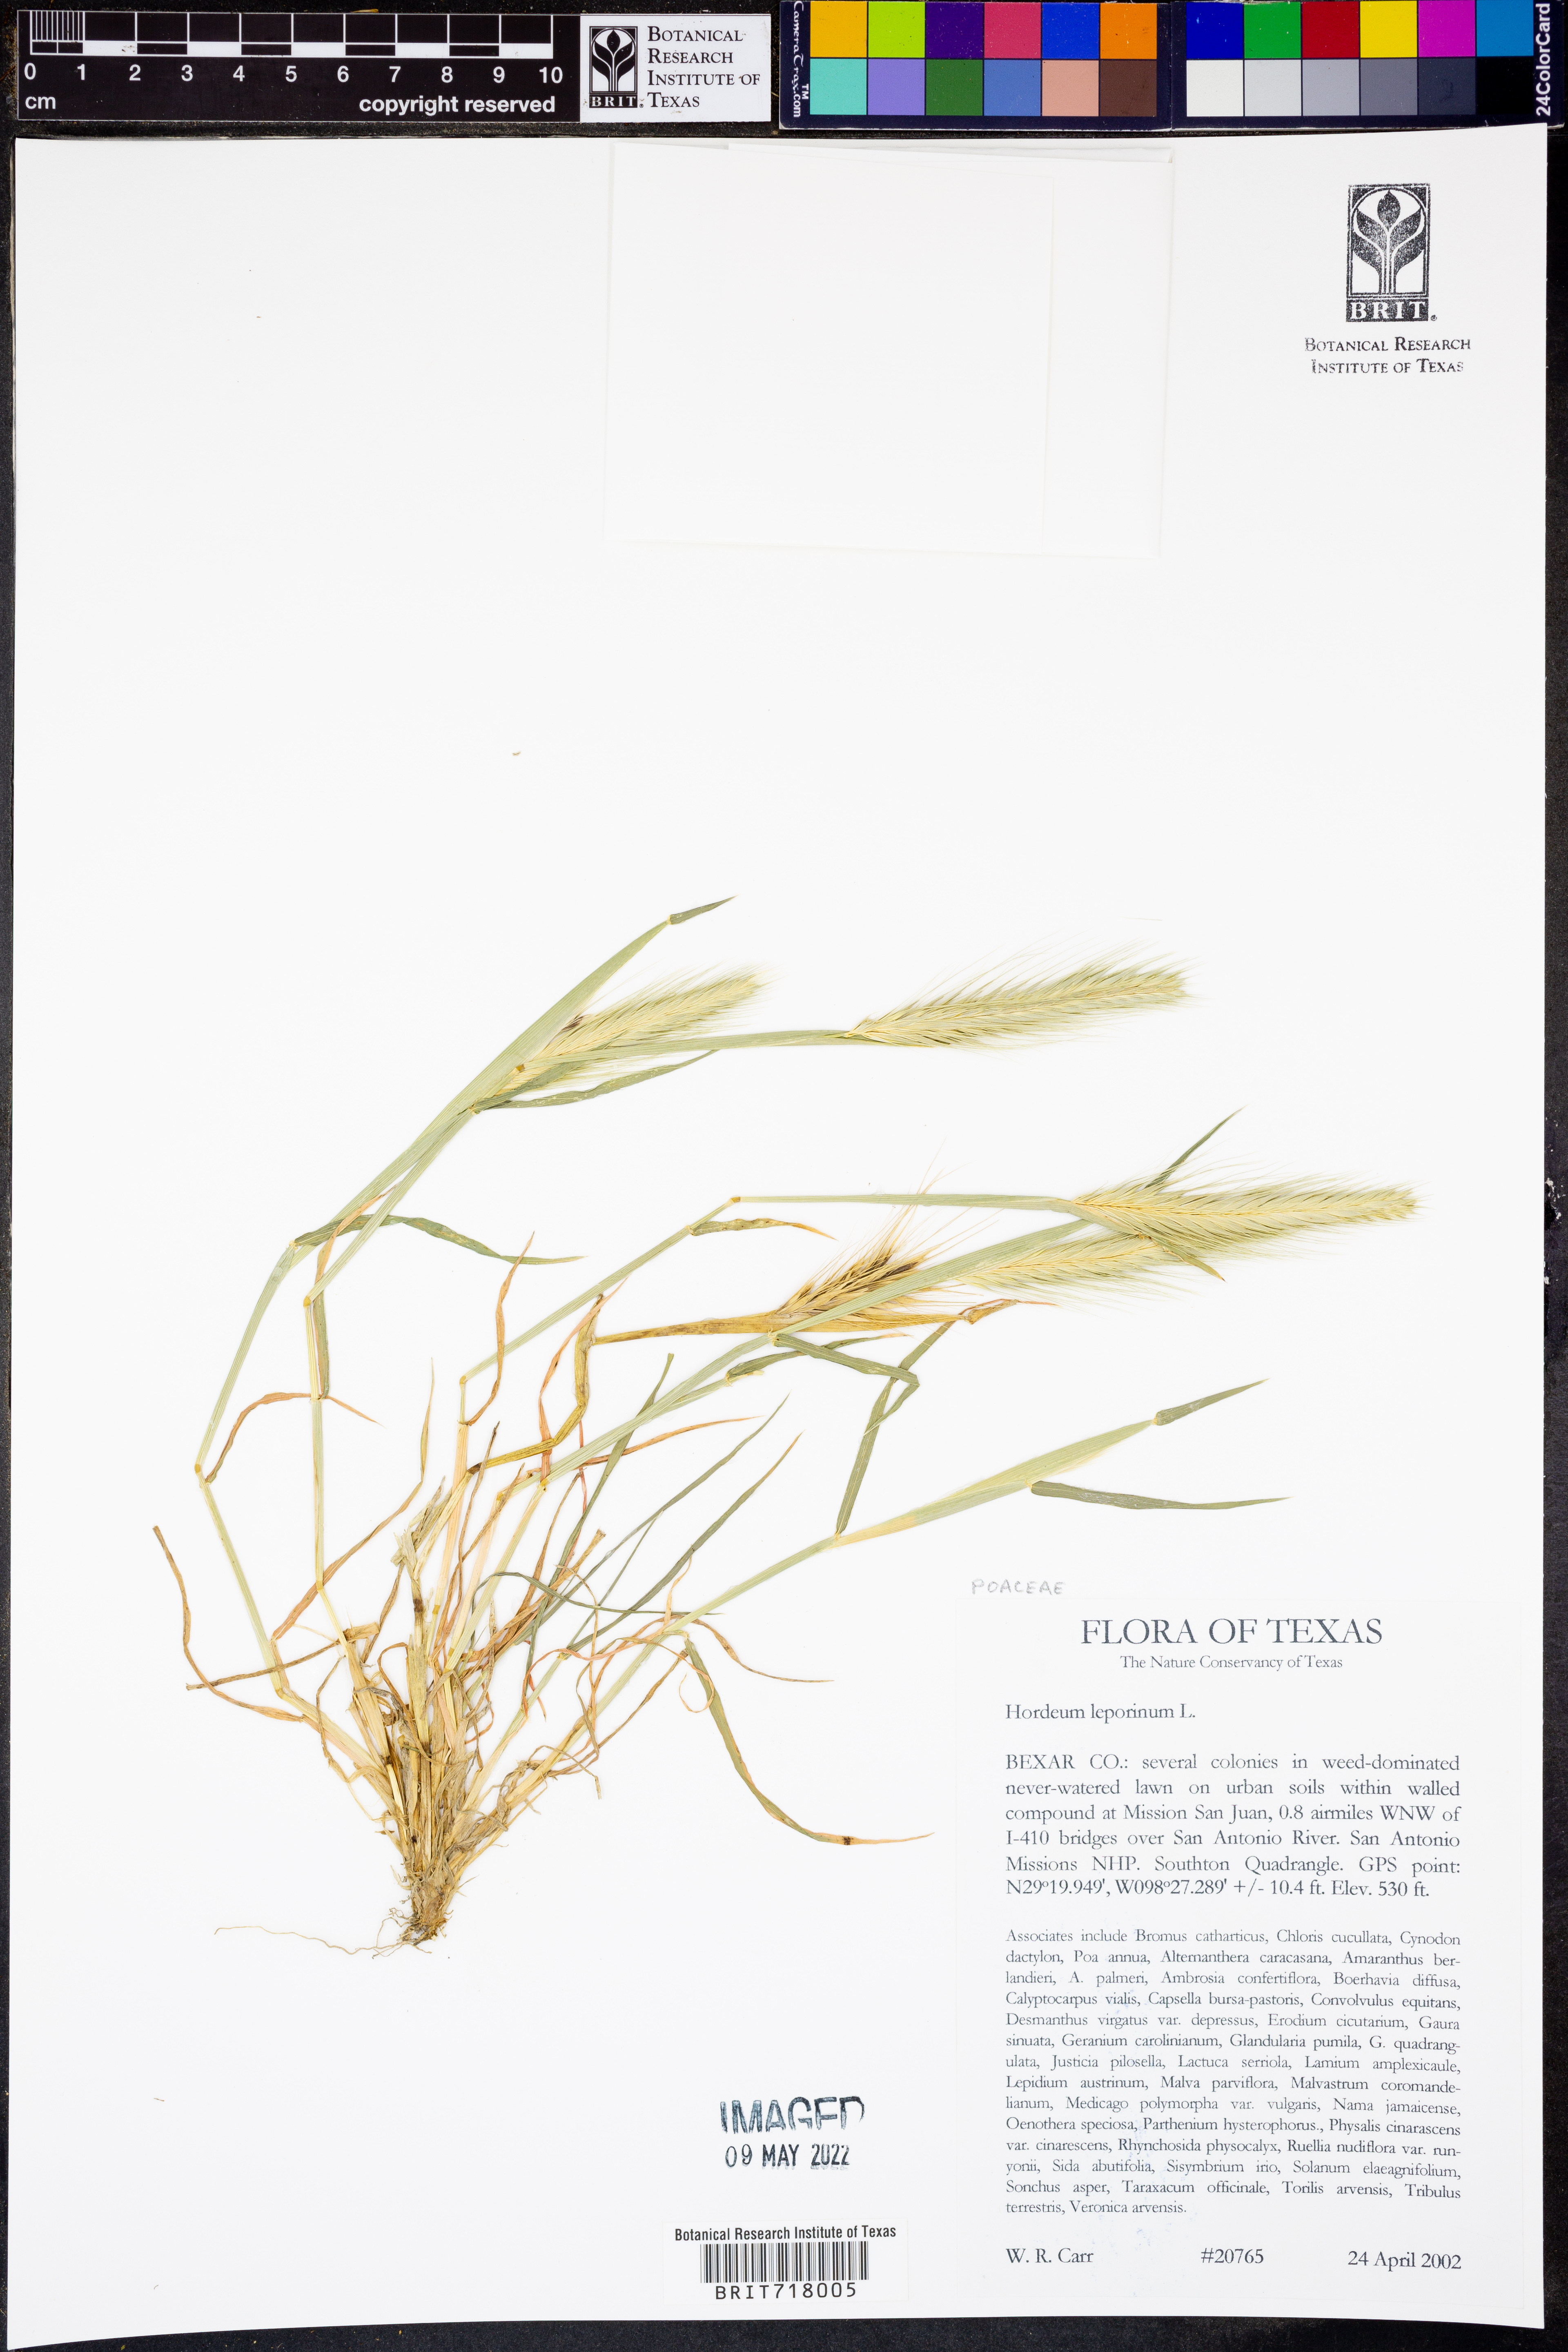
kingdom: Plantae
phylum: Tracheophyta
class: Liliopsida
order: Poales
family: Poaceae
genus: Hordeum
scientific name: Hordeum murinum
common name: Wall barley
